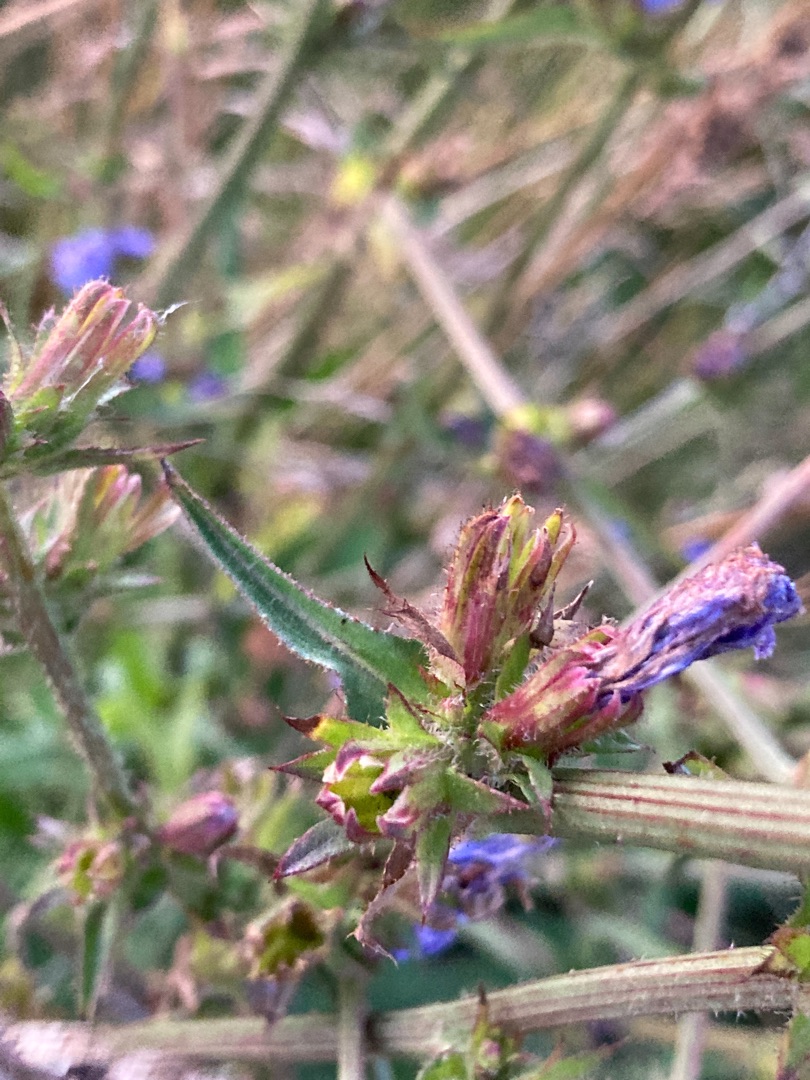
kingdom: Plantae
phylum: Tracheophyta
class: Magnoliopsida
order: Asterales
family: Asteraceae
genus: Cichorium
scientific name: Cichorium intybus
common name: Cikorie
